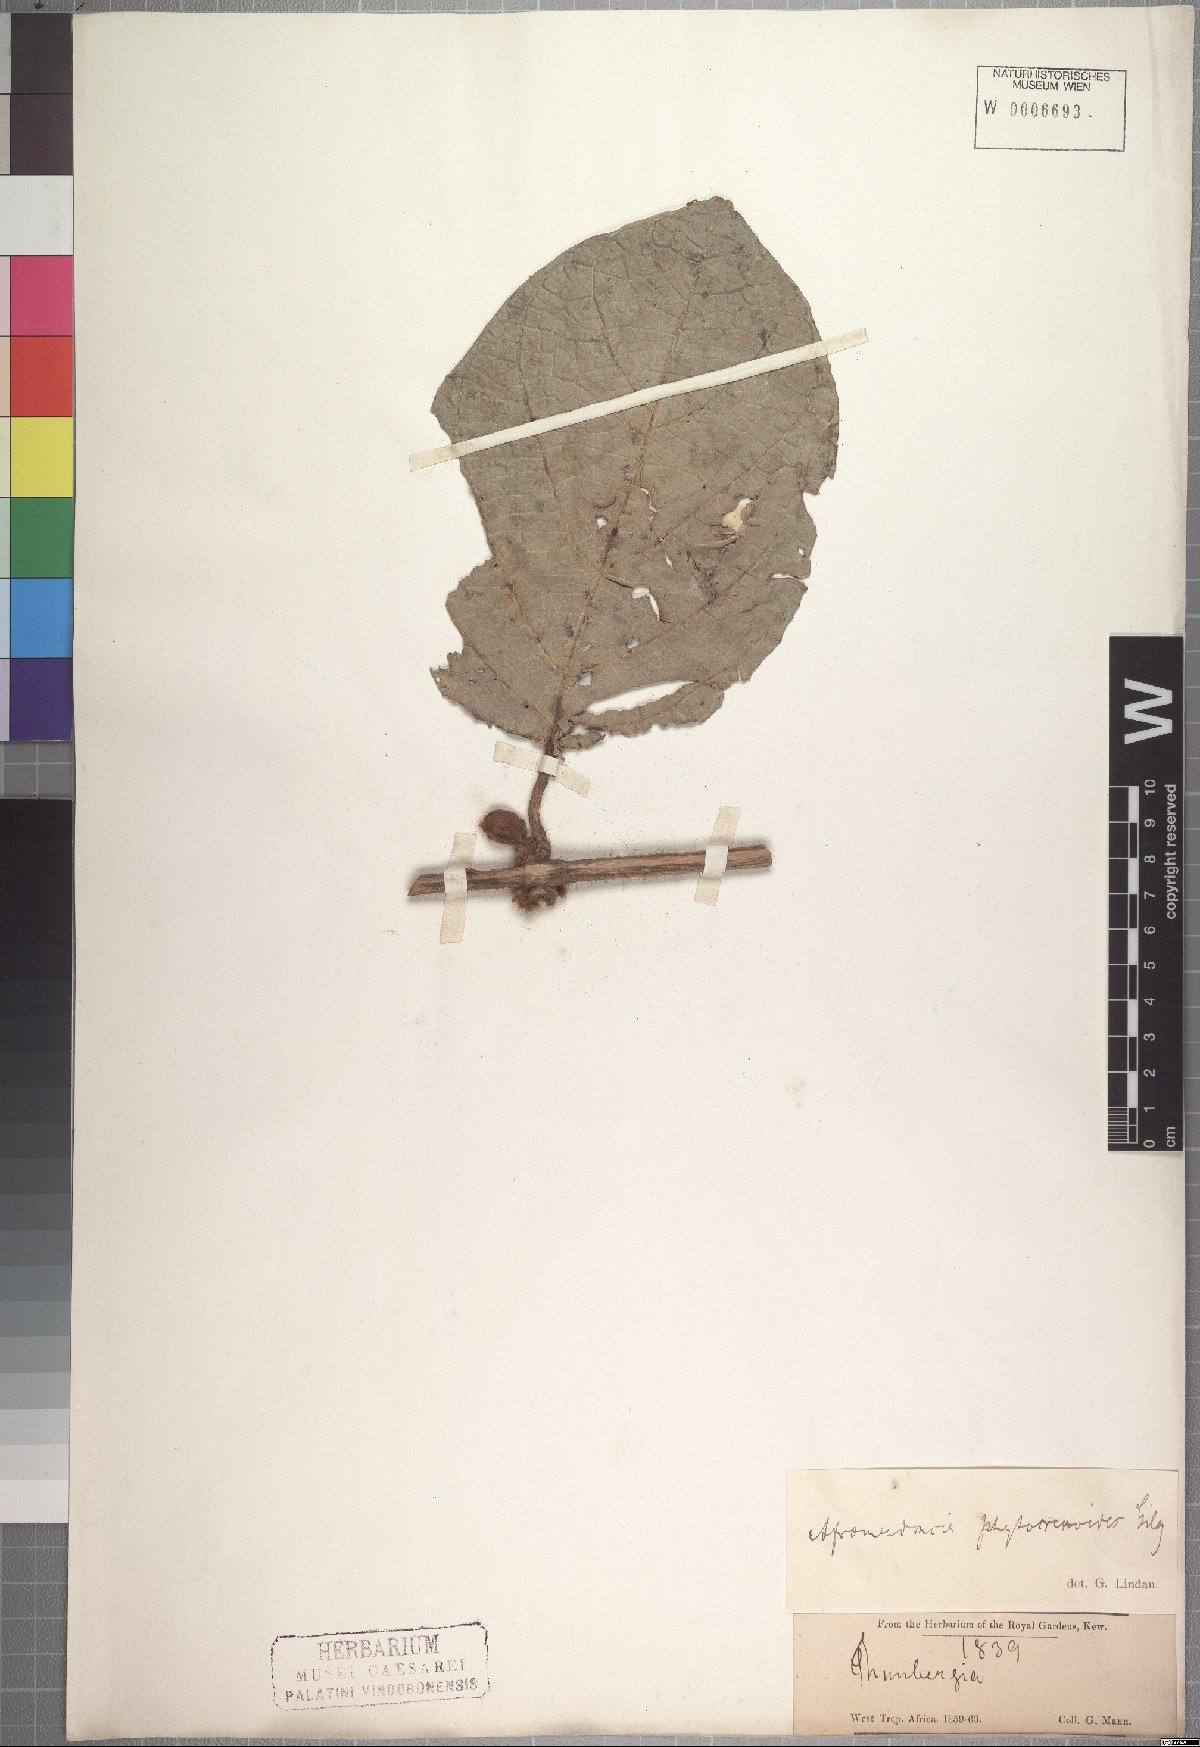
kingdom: Plantae
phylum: Tracheophyta
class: Magnoliopsida
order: Lamiales
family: Acanthaceae
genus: Mendoncia
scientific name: Mendoncia phytocrenoides
